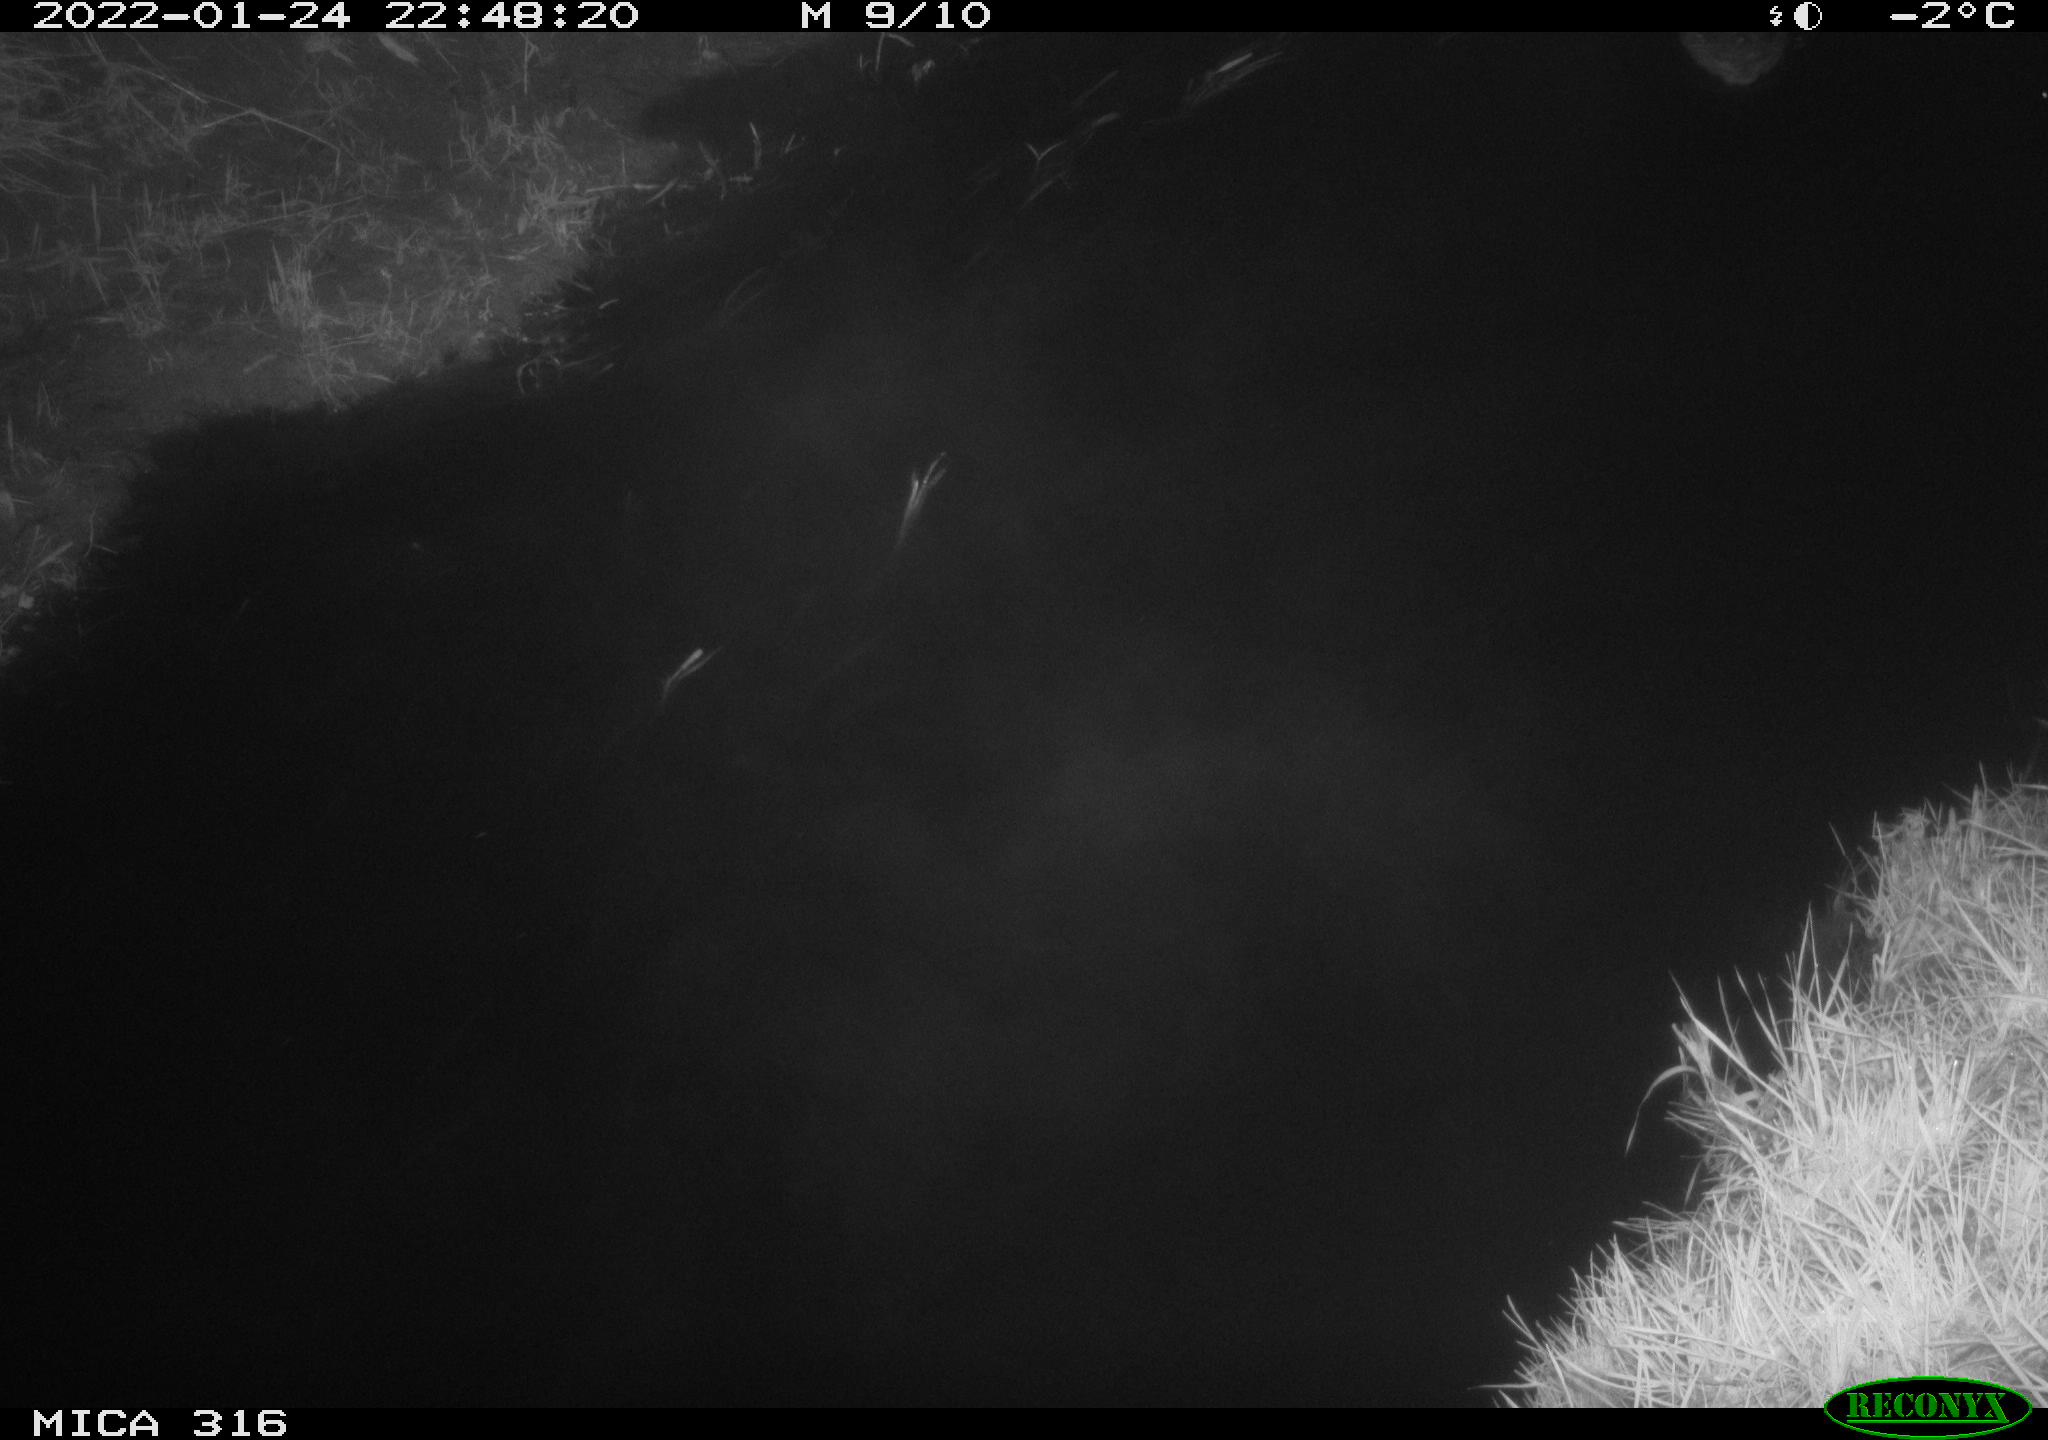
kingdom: Animalia
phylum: Chordata
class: Aves
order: Anseriformes
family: Anatidae
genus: Anas
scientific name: Anas platyrhynchos
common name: Mallard
